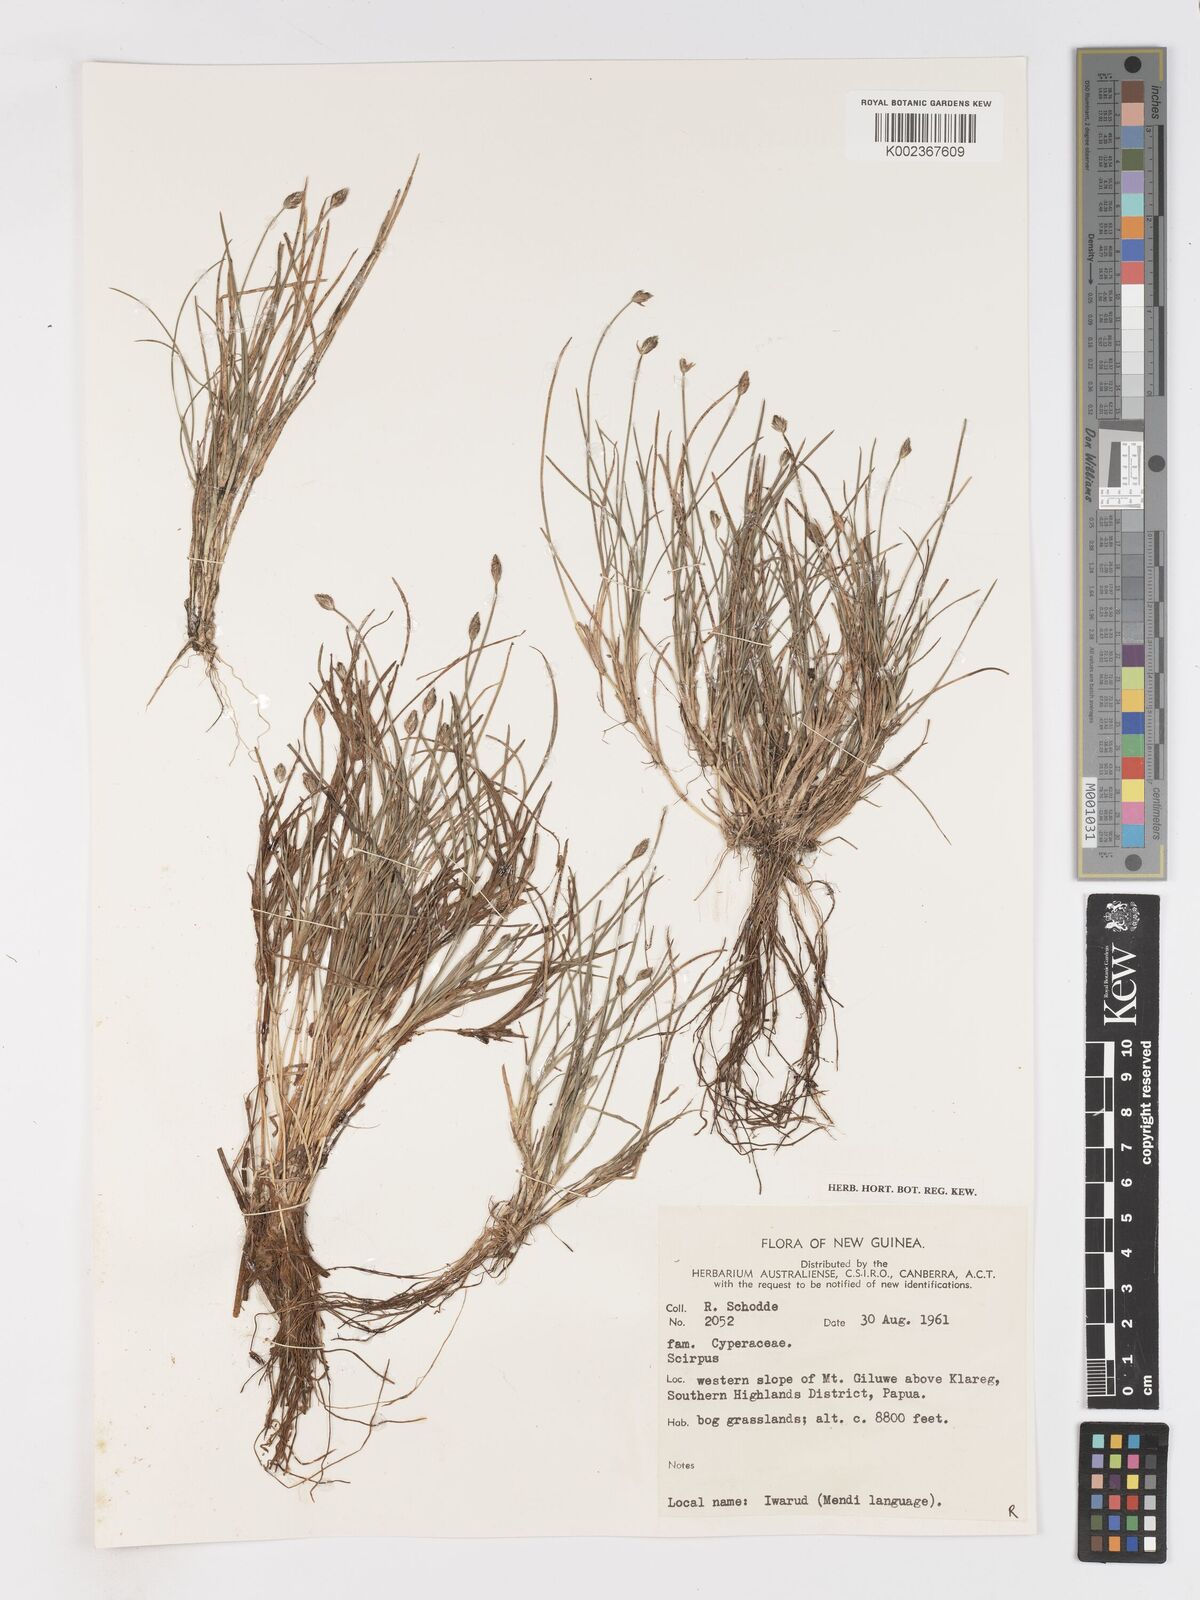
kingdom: Plantae
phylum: Tracheophyta
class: Liliopsida
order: Poales
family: Cyperaceae
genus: Isolepis
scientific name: Isolepis crassiuscula
